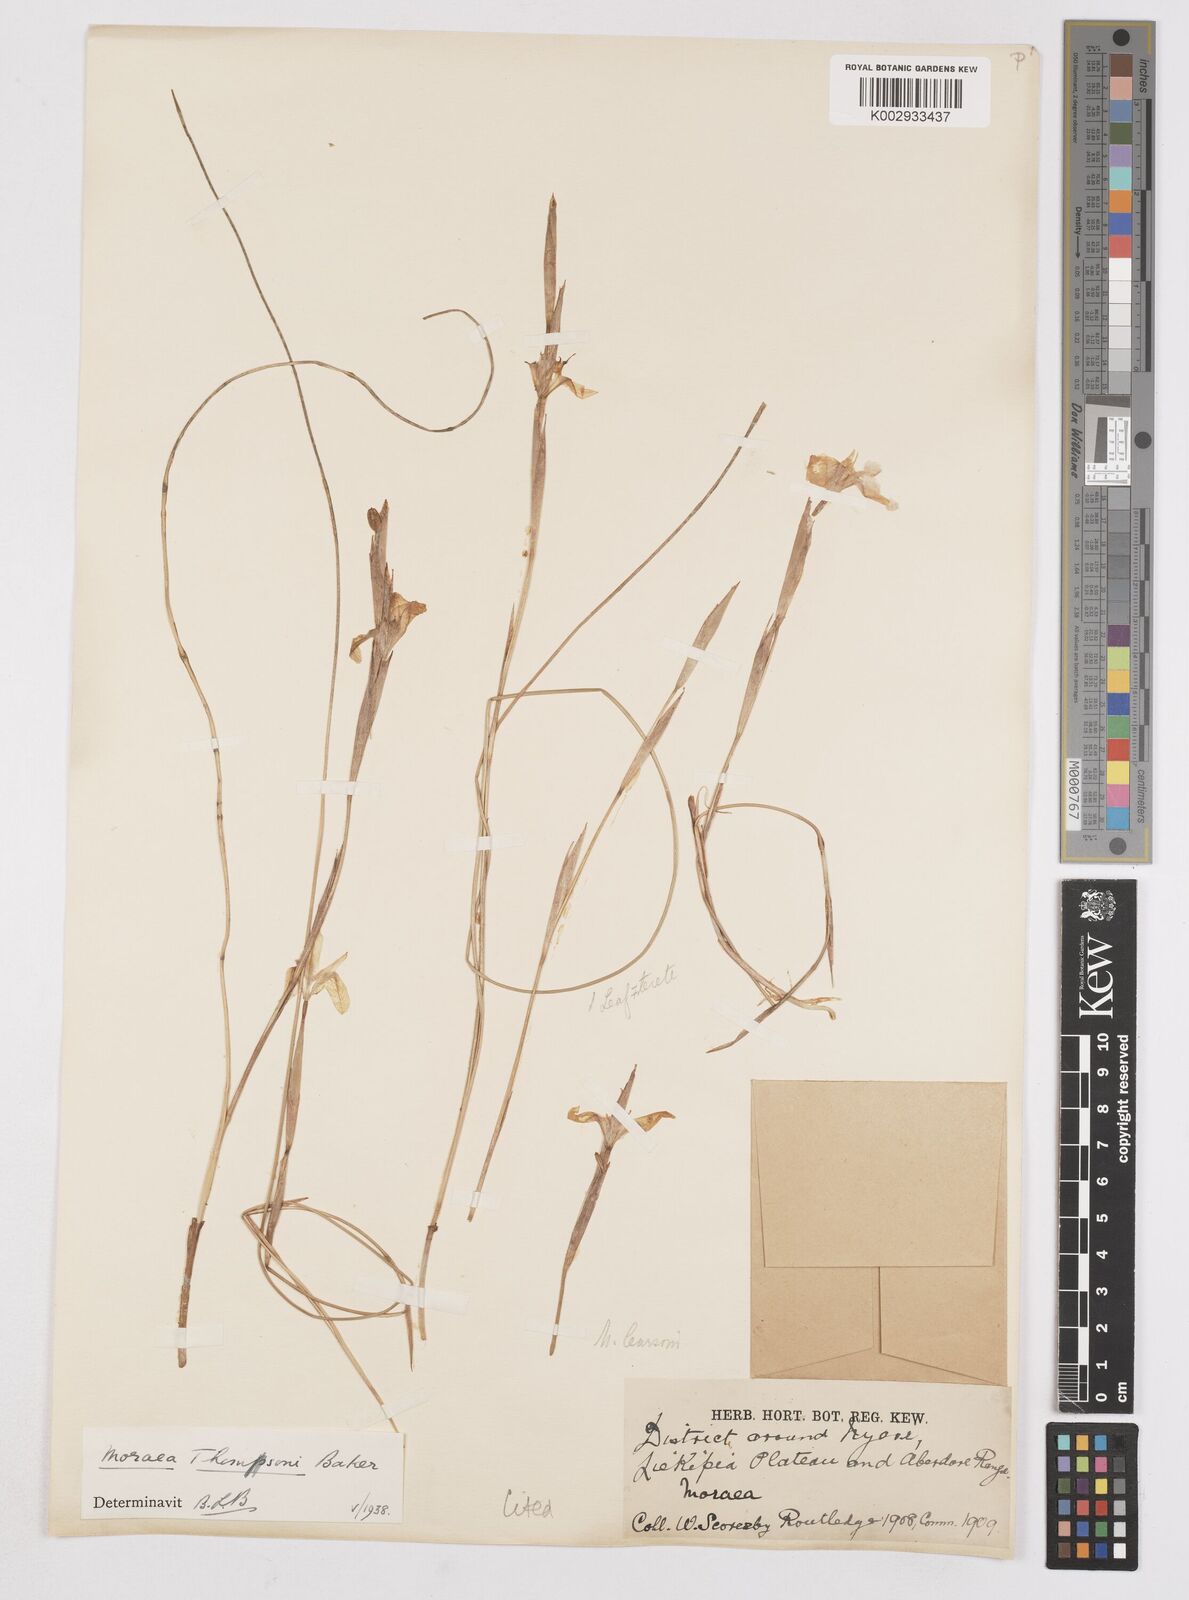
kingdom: Plantae
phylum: Tracheophyta
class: Liliopsida
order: Asparagales
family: Iridaceae
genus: Moraea
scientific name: Moraea stricta
